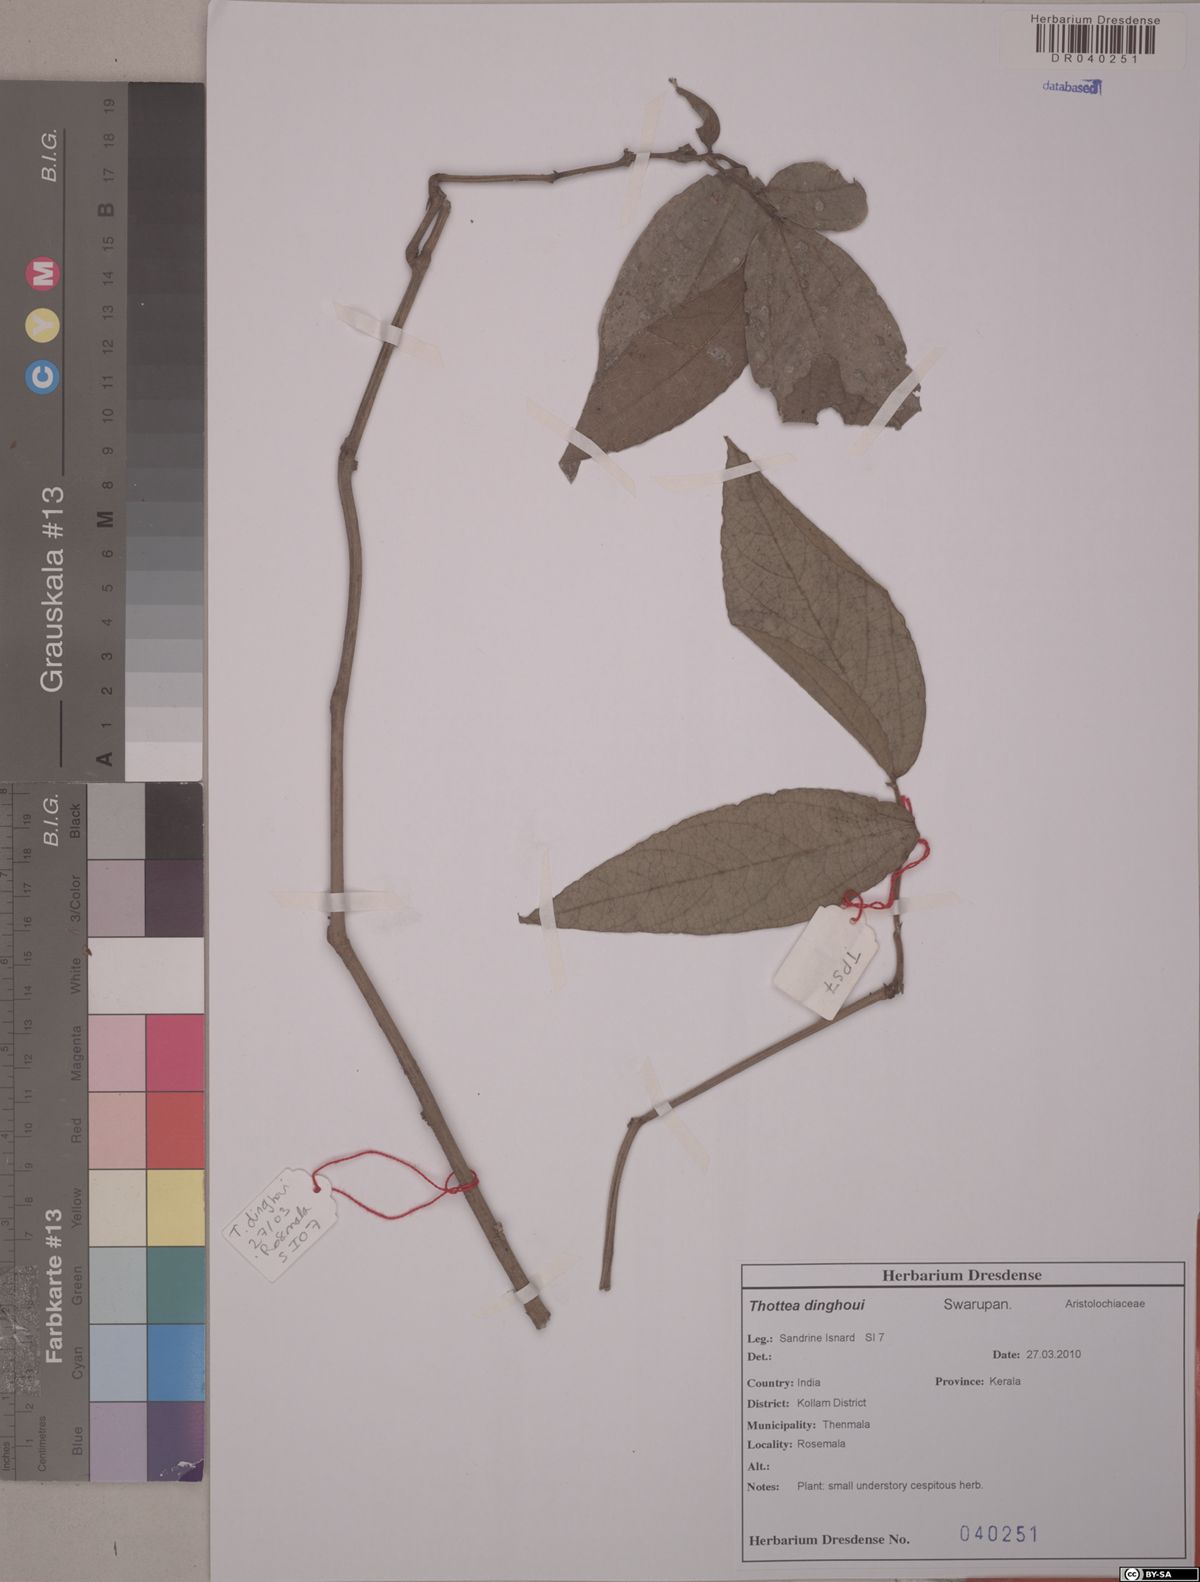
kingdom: Plantae
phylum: Tracheophyta
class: Magnoliopsida
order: Piperales
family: Aristolochiaceae
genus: Thottea
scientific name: Thottea dinghoui
